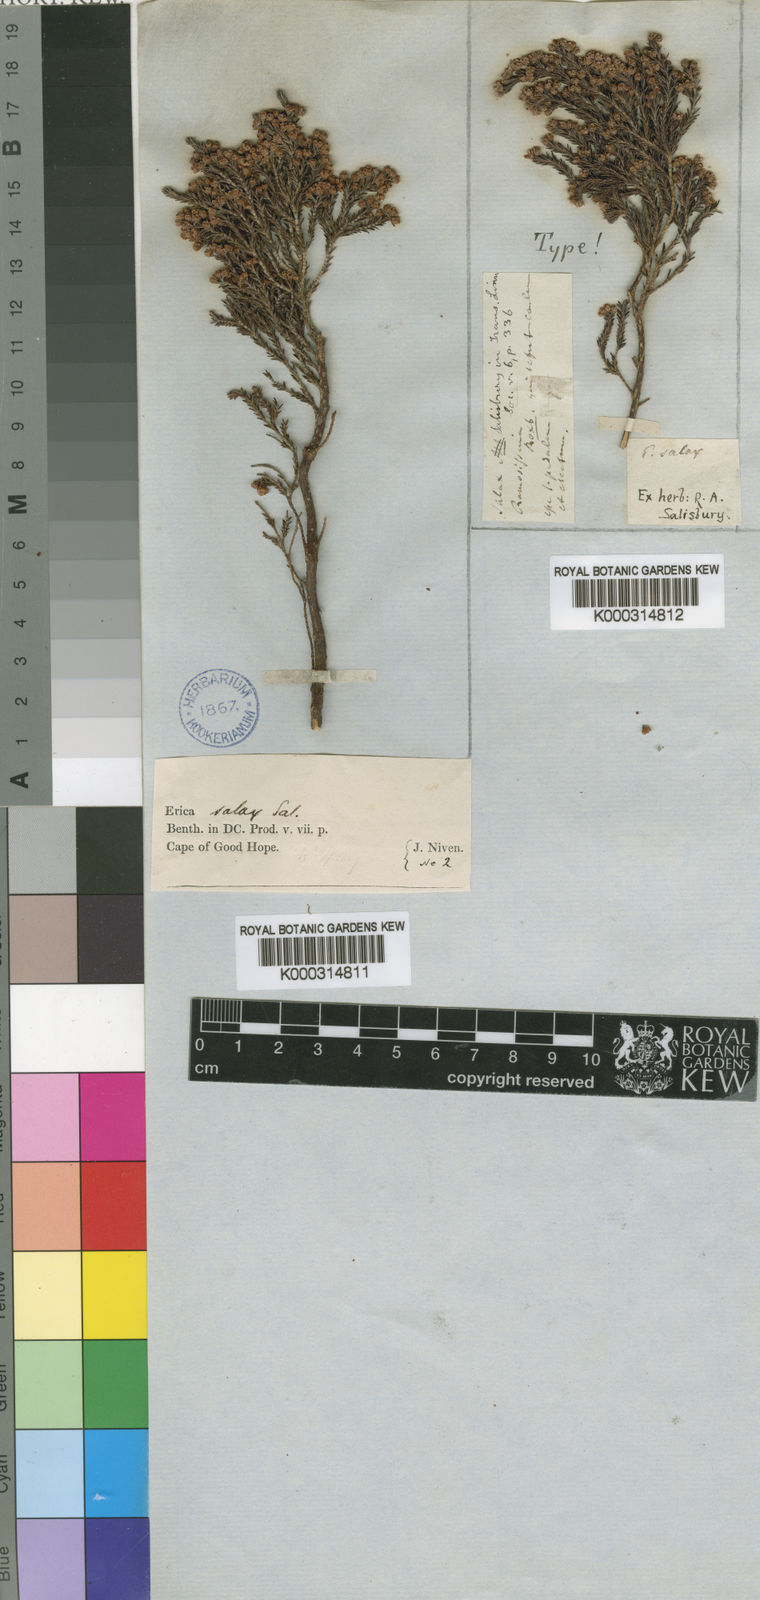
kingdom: Plantae
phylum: Tracheophyta
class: Magnoliopsida
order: Ericales
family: Ericaceae
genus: Erica
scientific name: Erica salax
